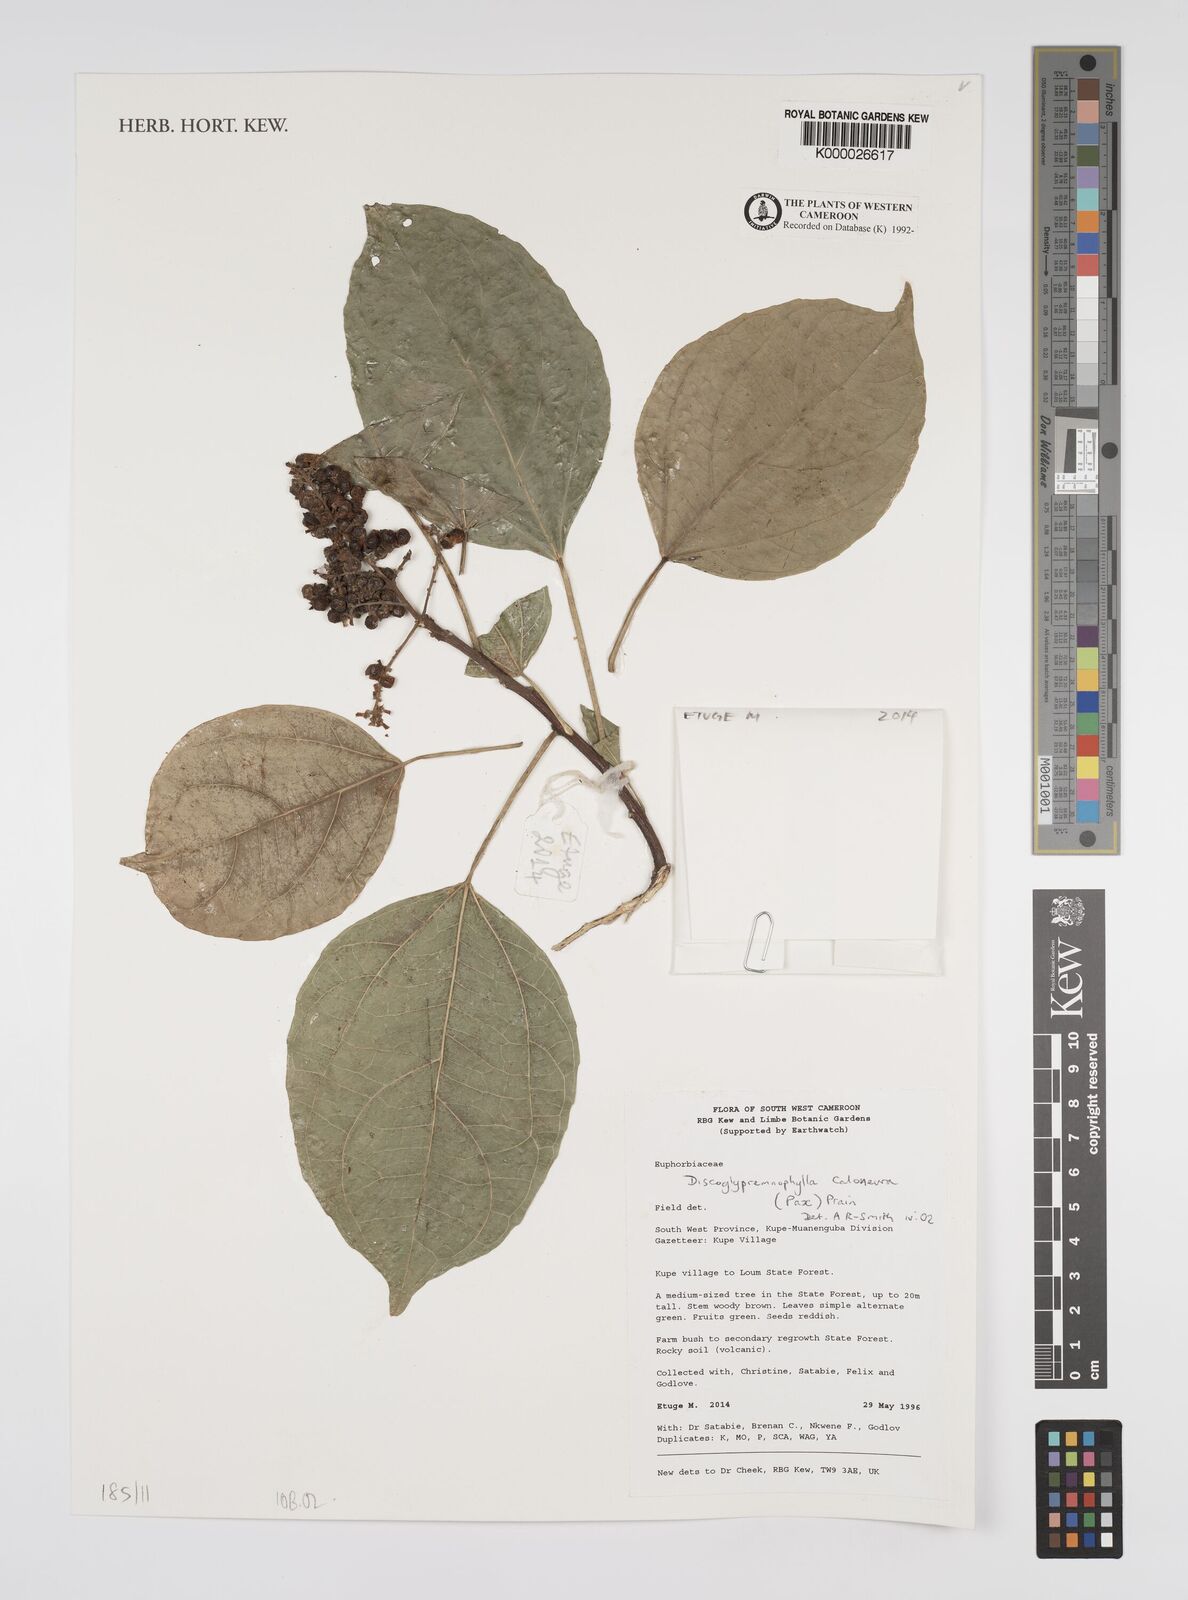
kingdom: Plantae
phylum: Tracheophyta
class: Magnoliopsida
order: Malpighiales
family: Euphorbiaceae
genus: Discoglypremna
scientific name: Discoglypremna caloneura
